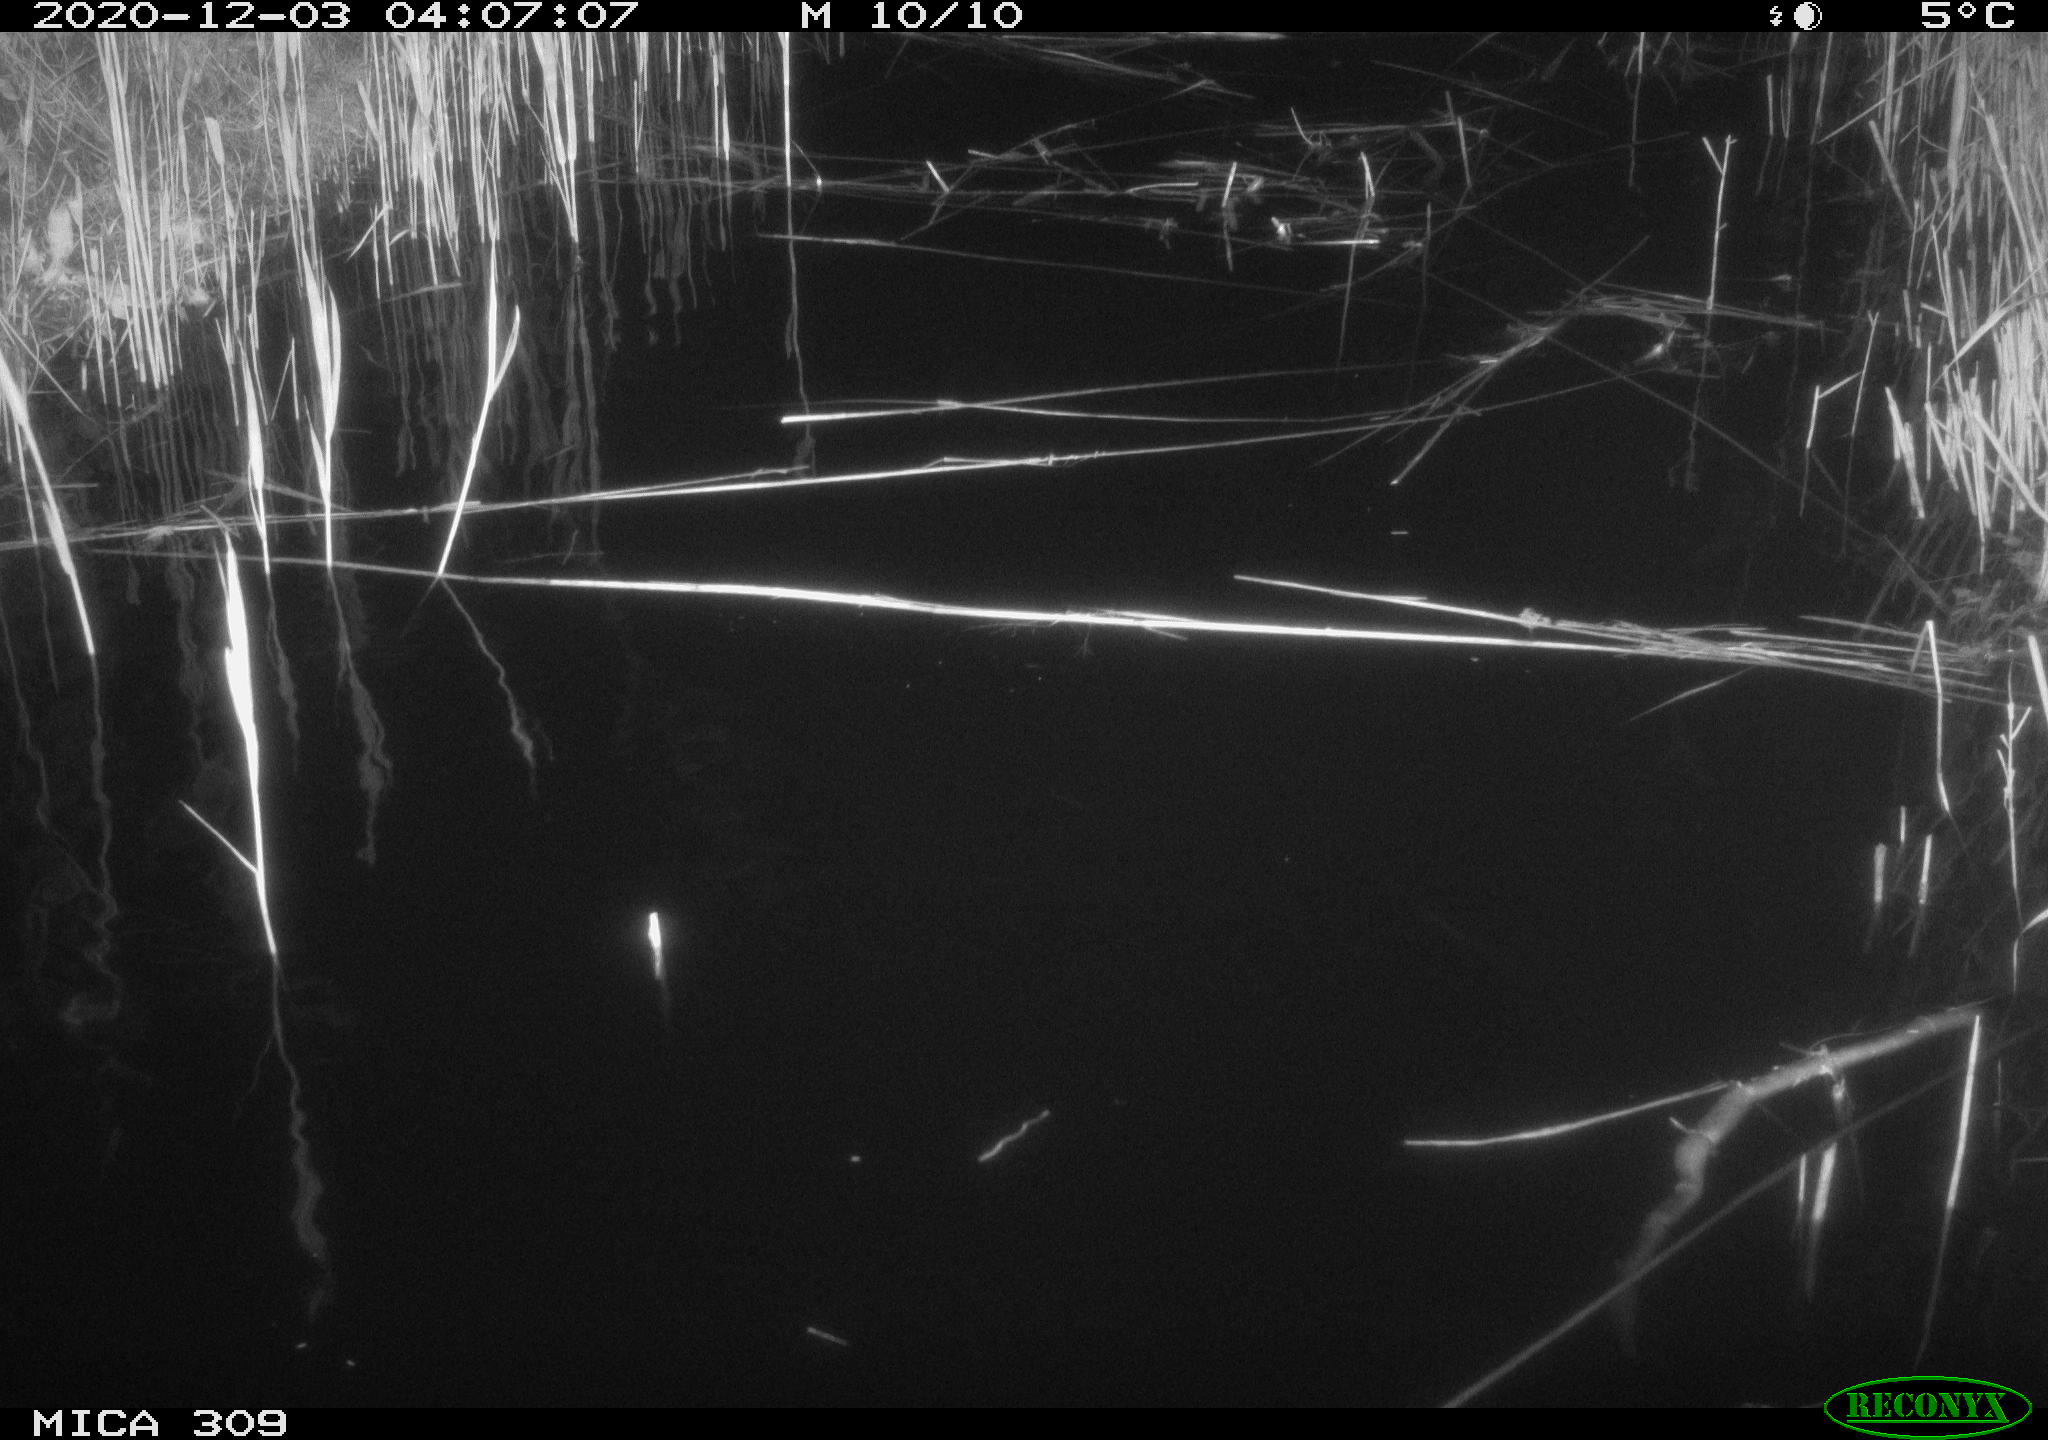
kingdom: Animalia
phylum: Chordata
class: Mammalia
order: Rodentia
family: Muridae
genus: Rattus
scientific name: Rattus norvegicus
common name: Brown rat
